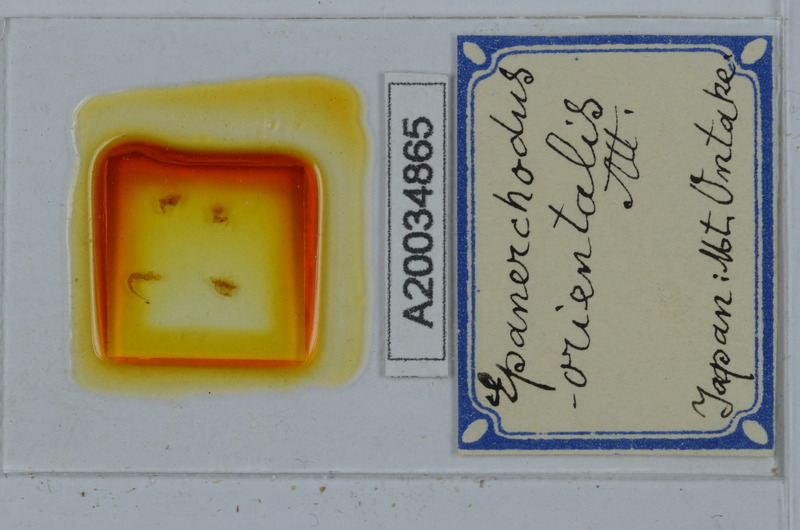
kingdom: Animalia
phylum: Arthropoda
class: Diplopoda
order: Polydesmida
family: Polydesmidae
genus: Epanerchodus
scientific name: Epanerchodus orientalis
